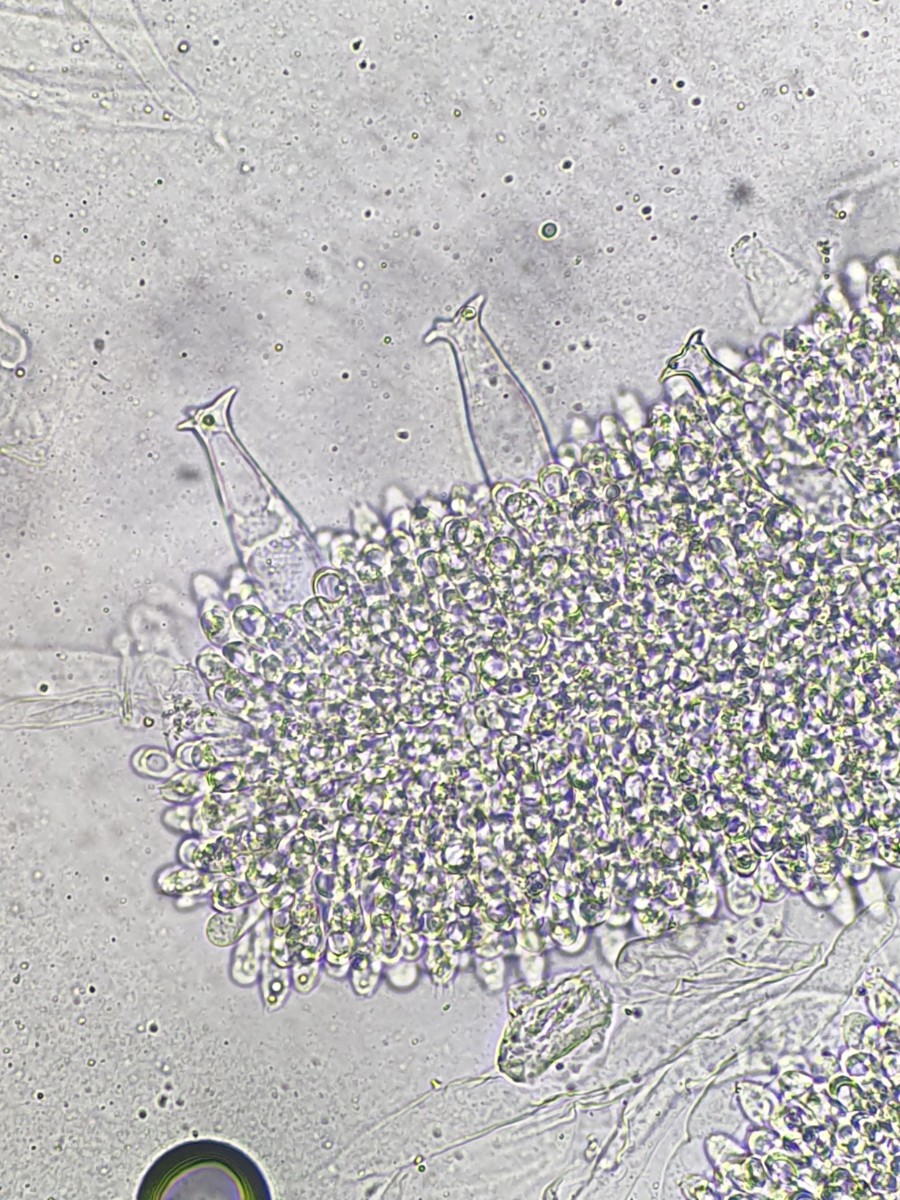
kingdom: Fungi
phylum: Basidiomycota
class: Agaricomycetes
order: Agaricales
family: Pluteaceae
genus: Pluteus
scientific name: Pluteus cervinus
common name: sodfarvet skærmhat
